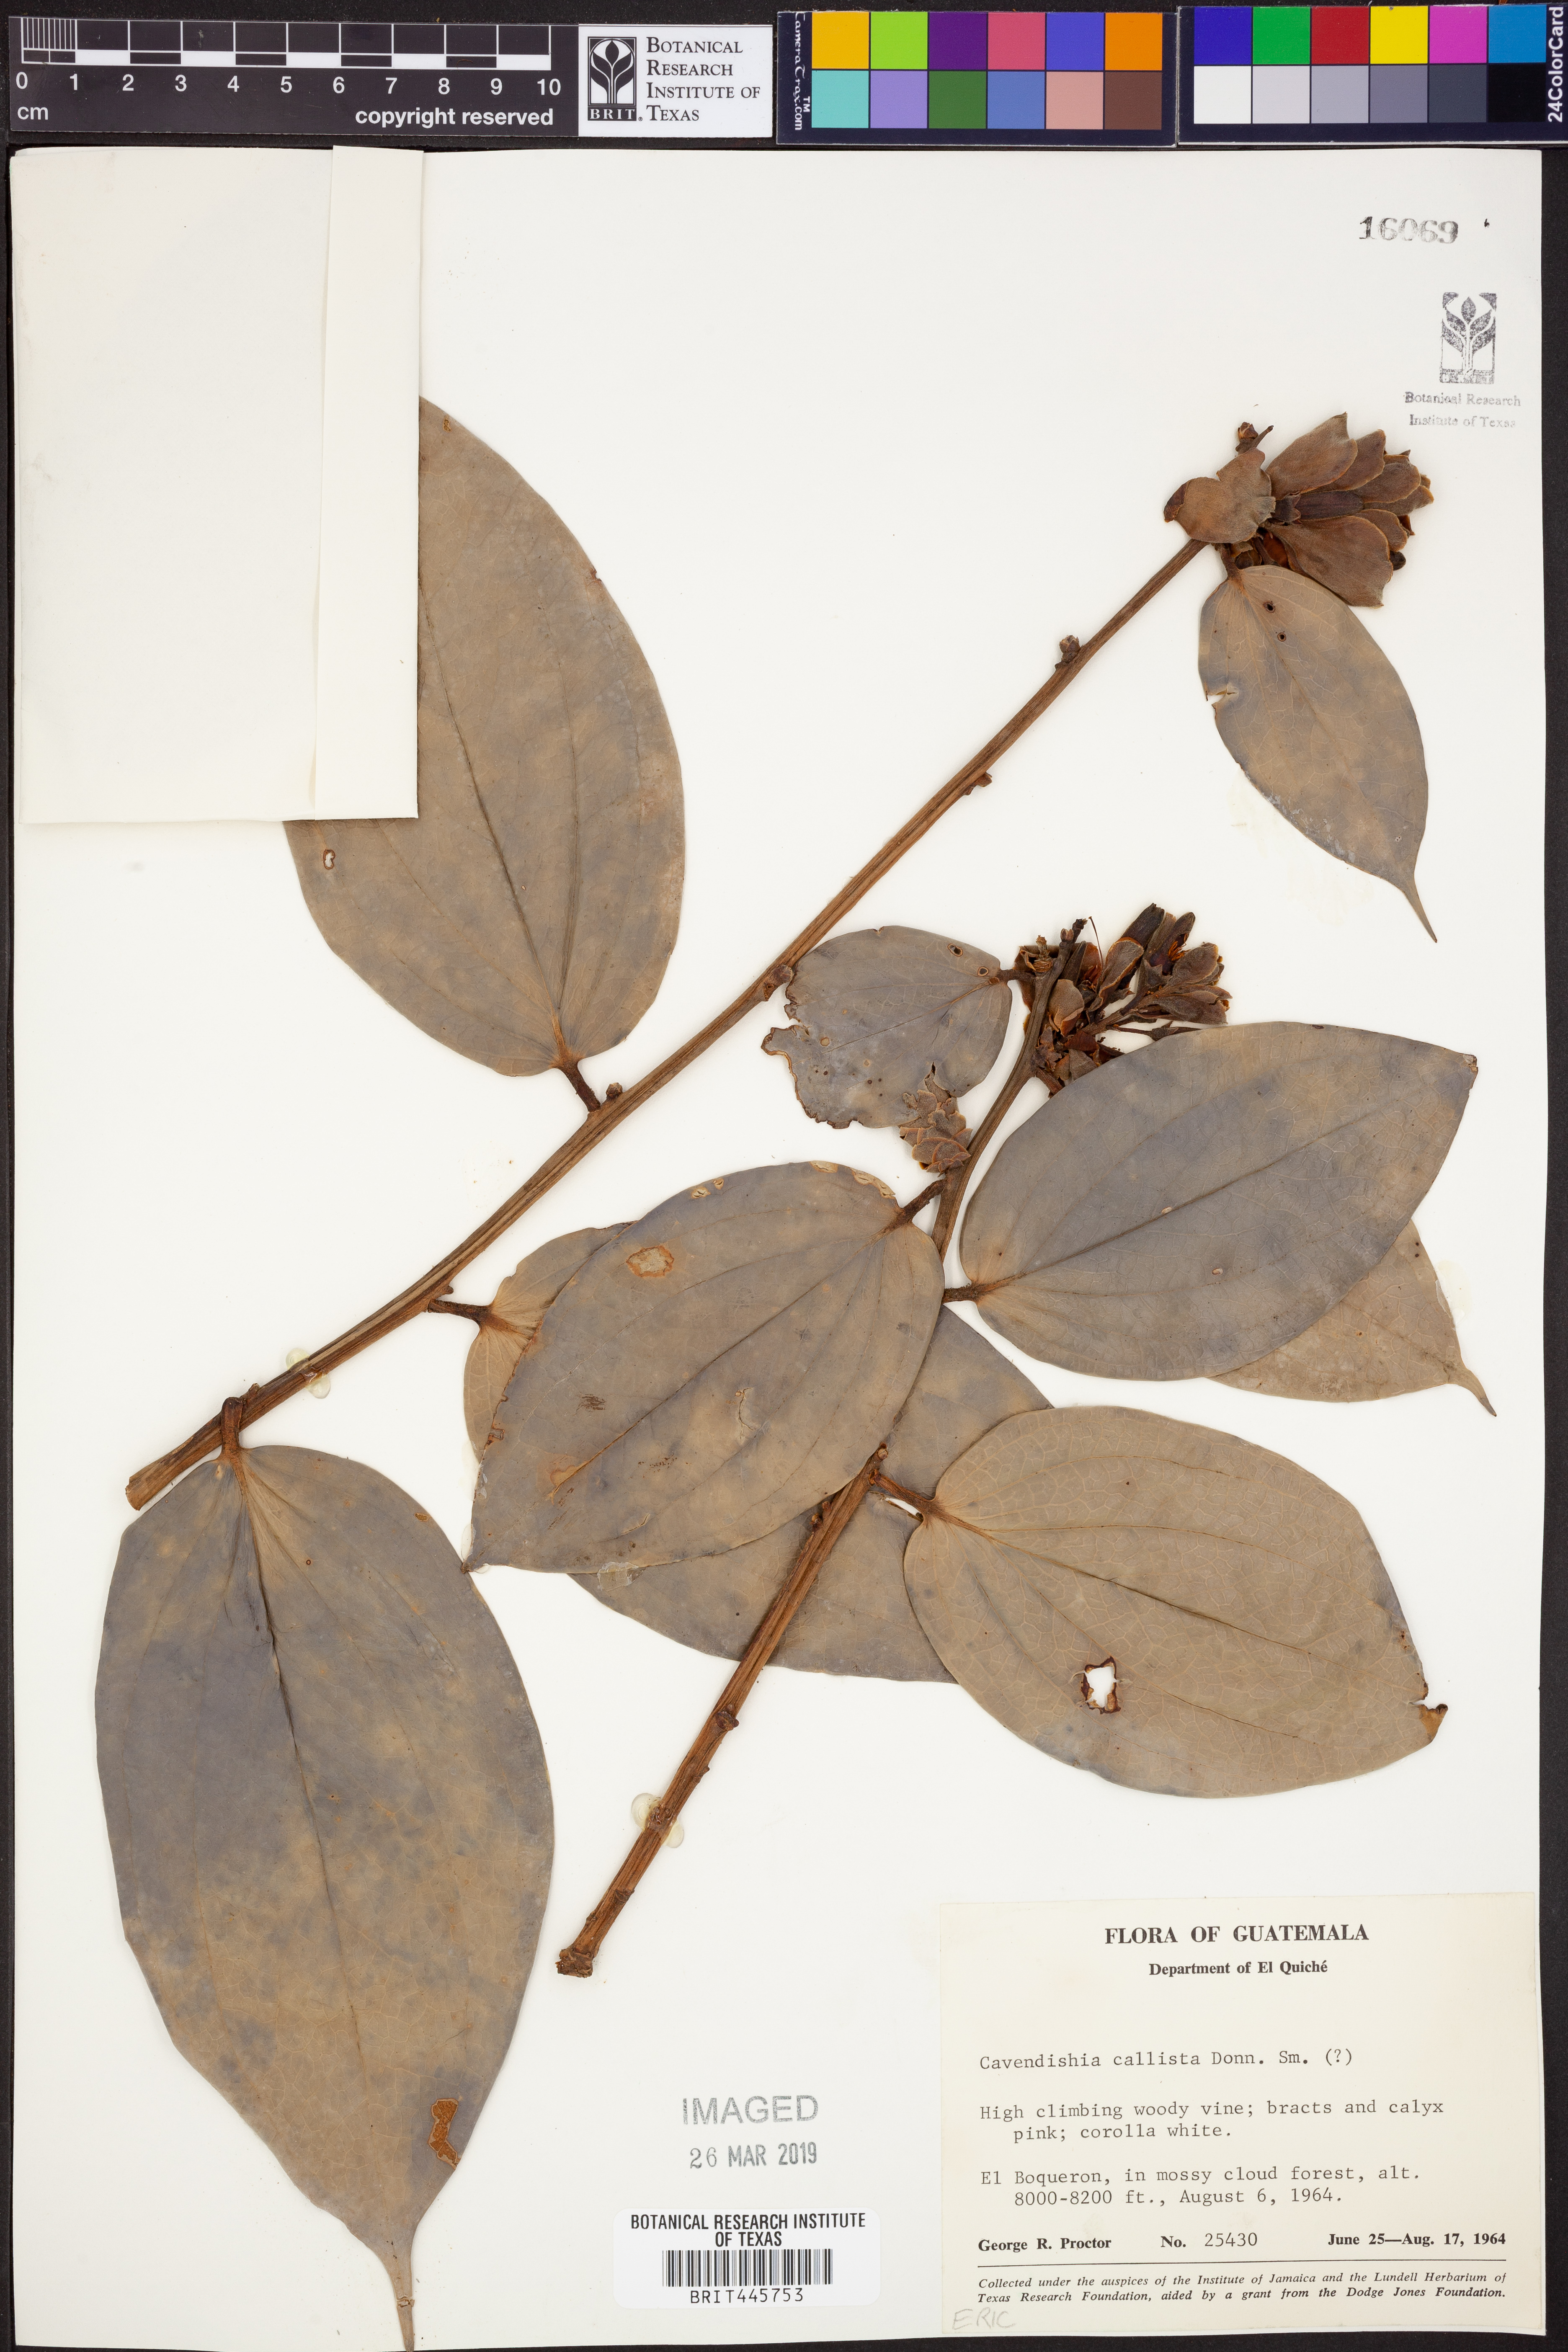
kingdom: Plantae
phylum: Tracheophyta
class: Magnoliopsida
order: Ericales
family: Ericaceae
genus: Cavendishia
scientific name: Cavendishia callista
